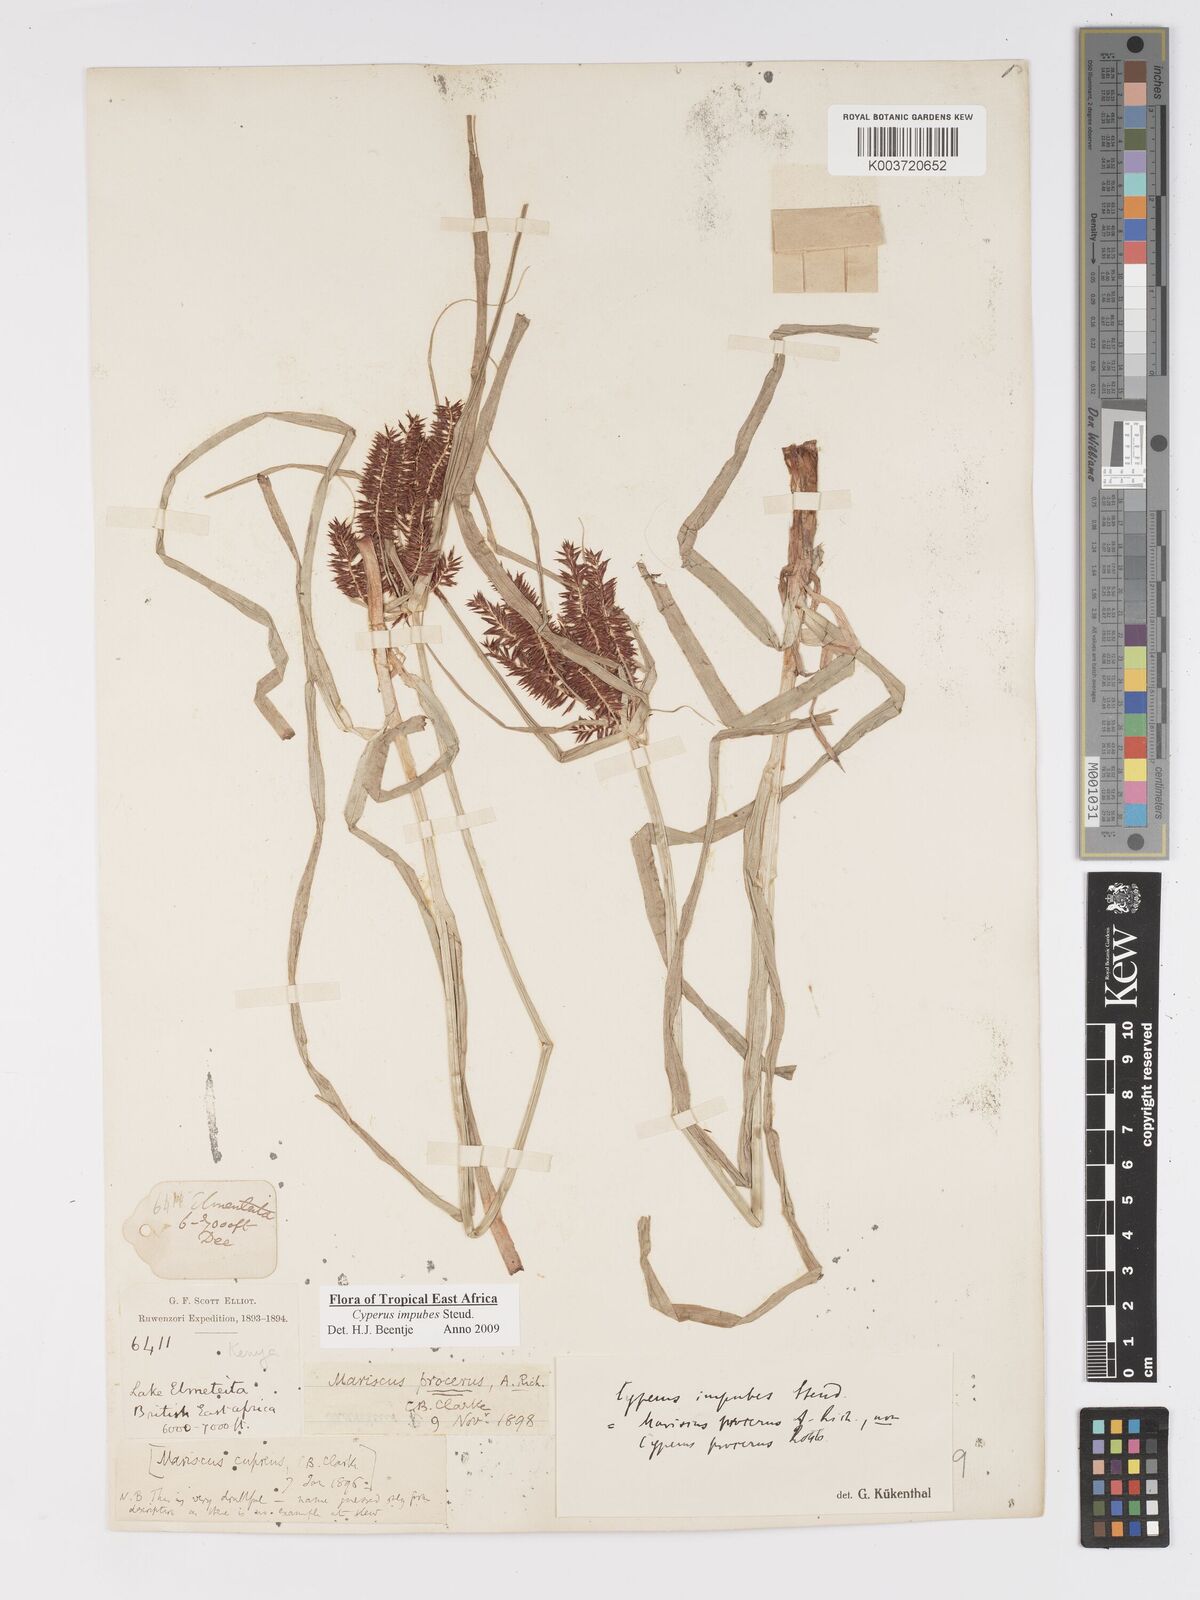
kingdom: Plantae
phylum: Tracheophyta
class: Liliopsida
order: Poales
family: Cyperaceae
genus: Cyperus
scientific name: Cyperus impubes
